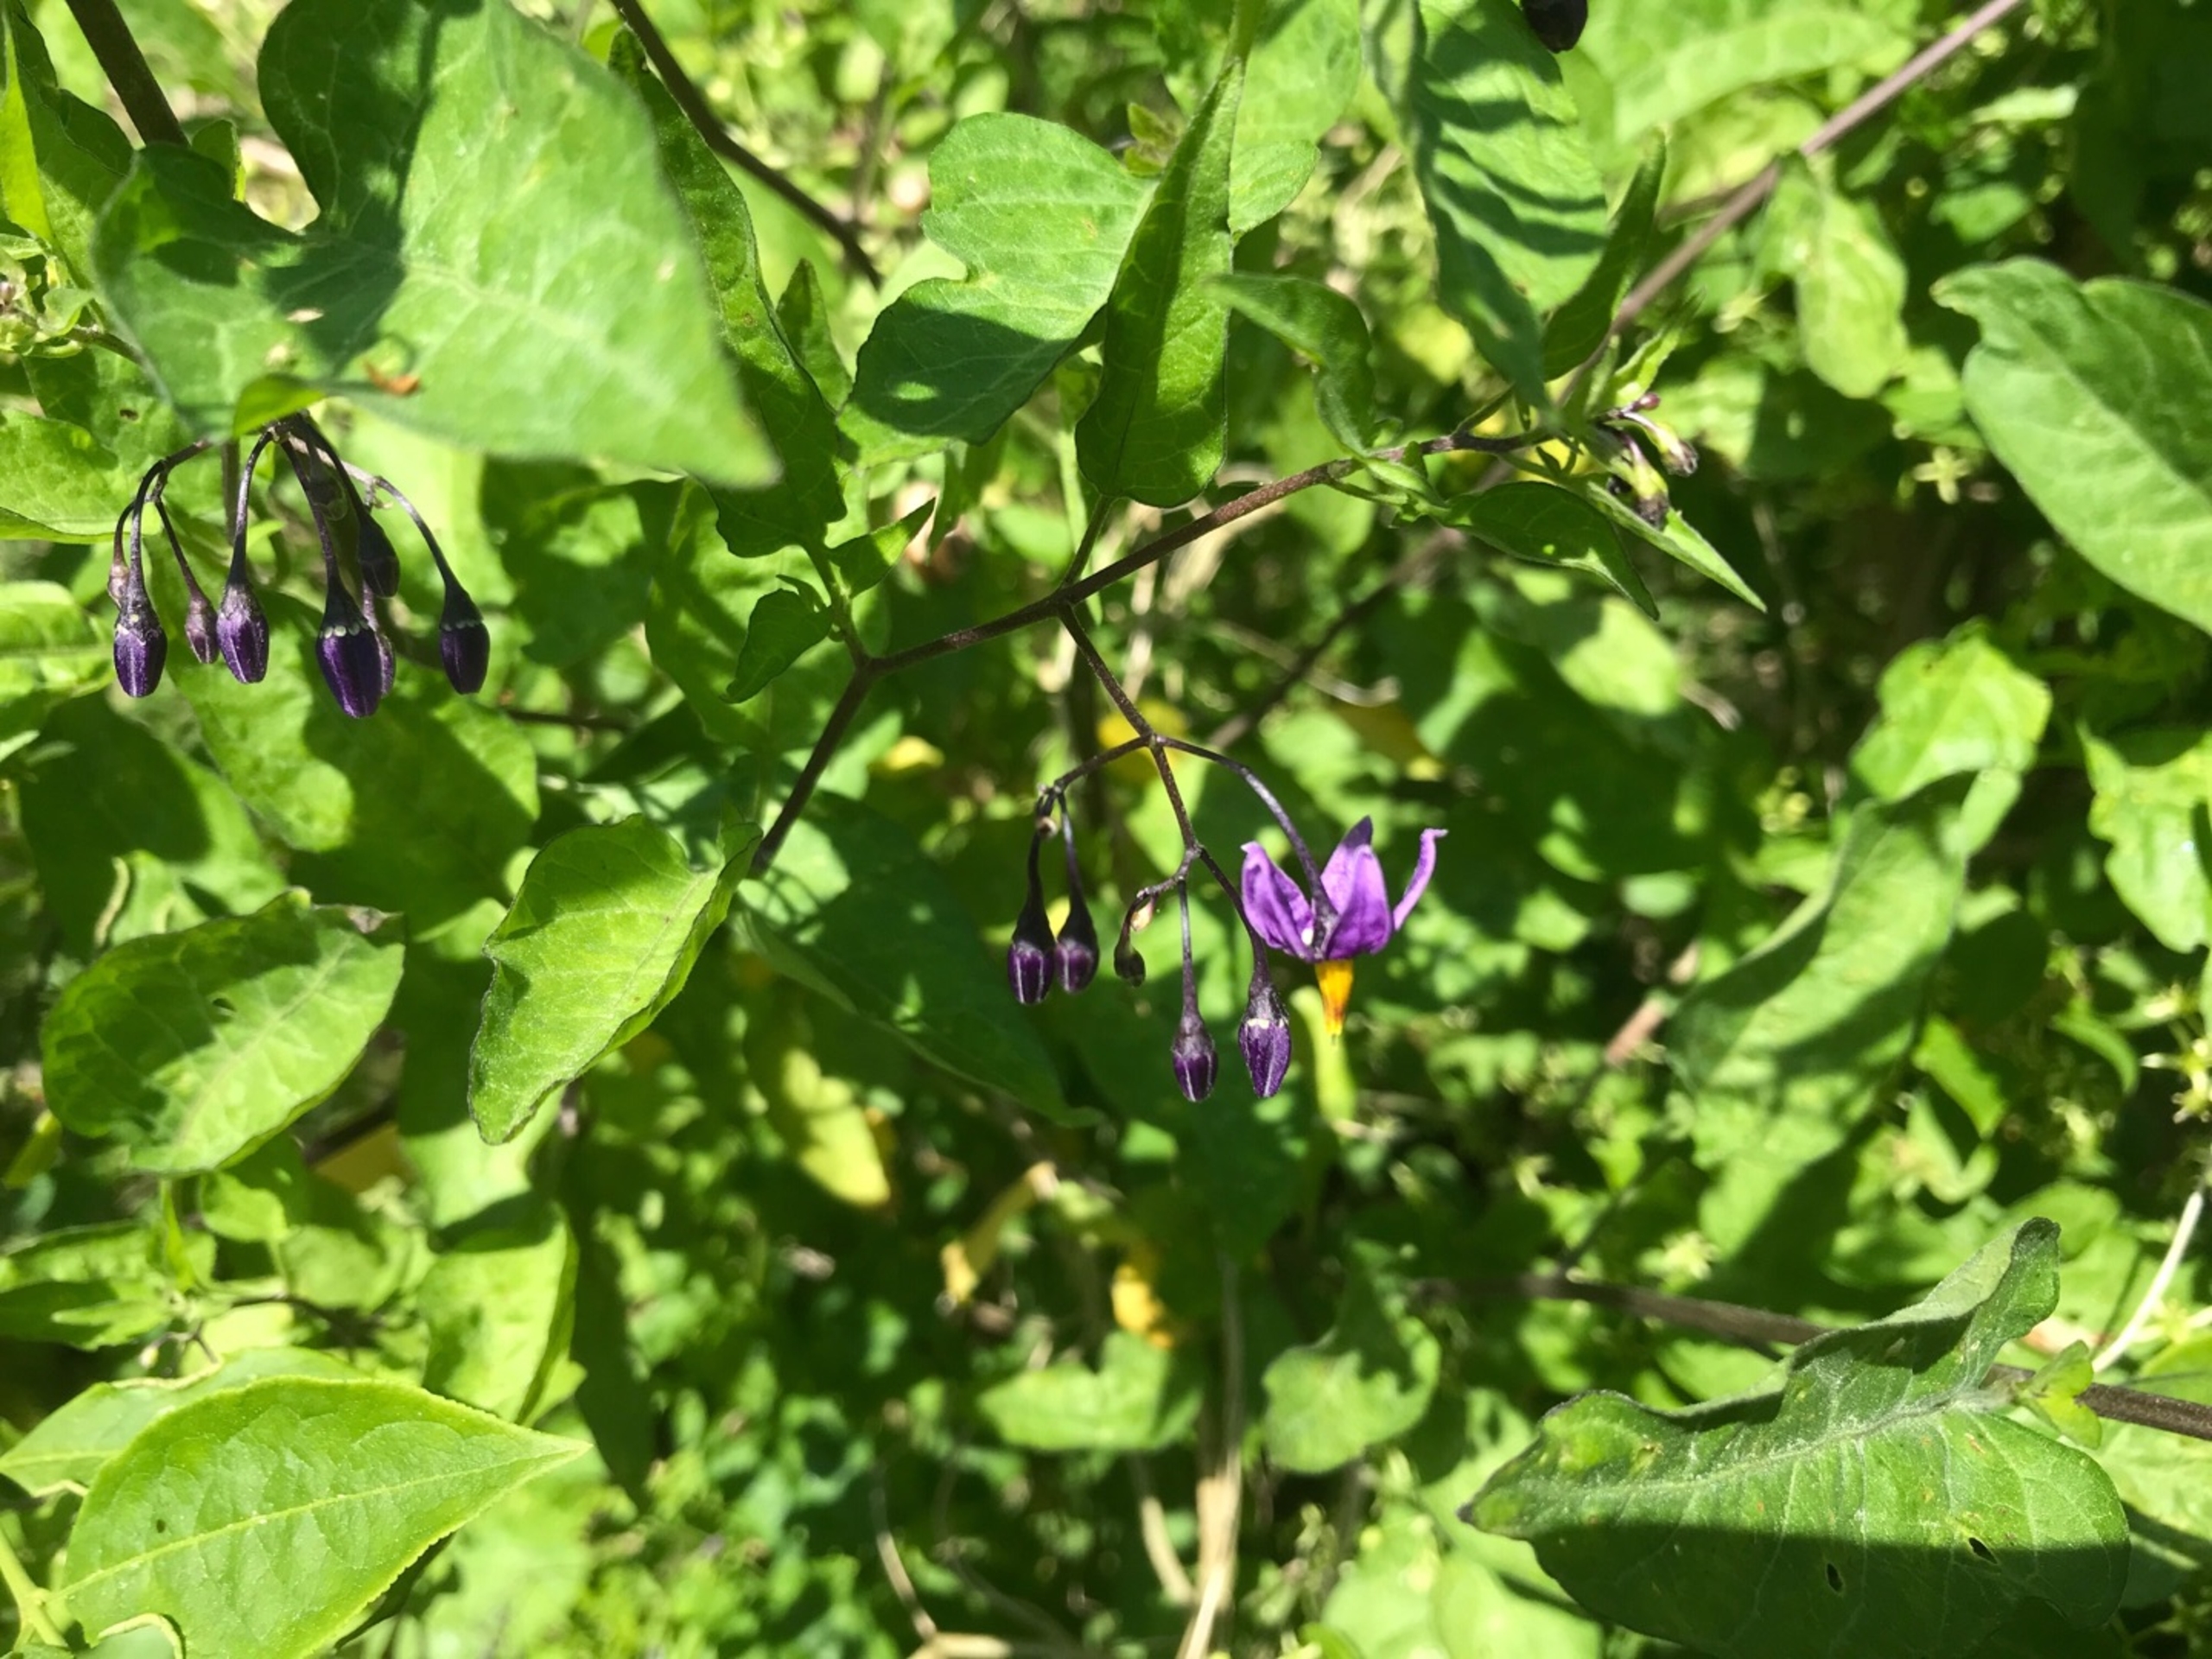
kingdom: Plantae
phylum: Tracheophyta
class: Magnoliopsida
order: Solanales
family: Solanaceae
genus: Solanum
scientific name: Solanum dulcamara
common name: Bittersød natskygge
